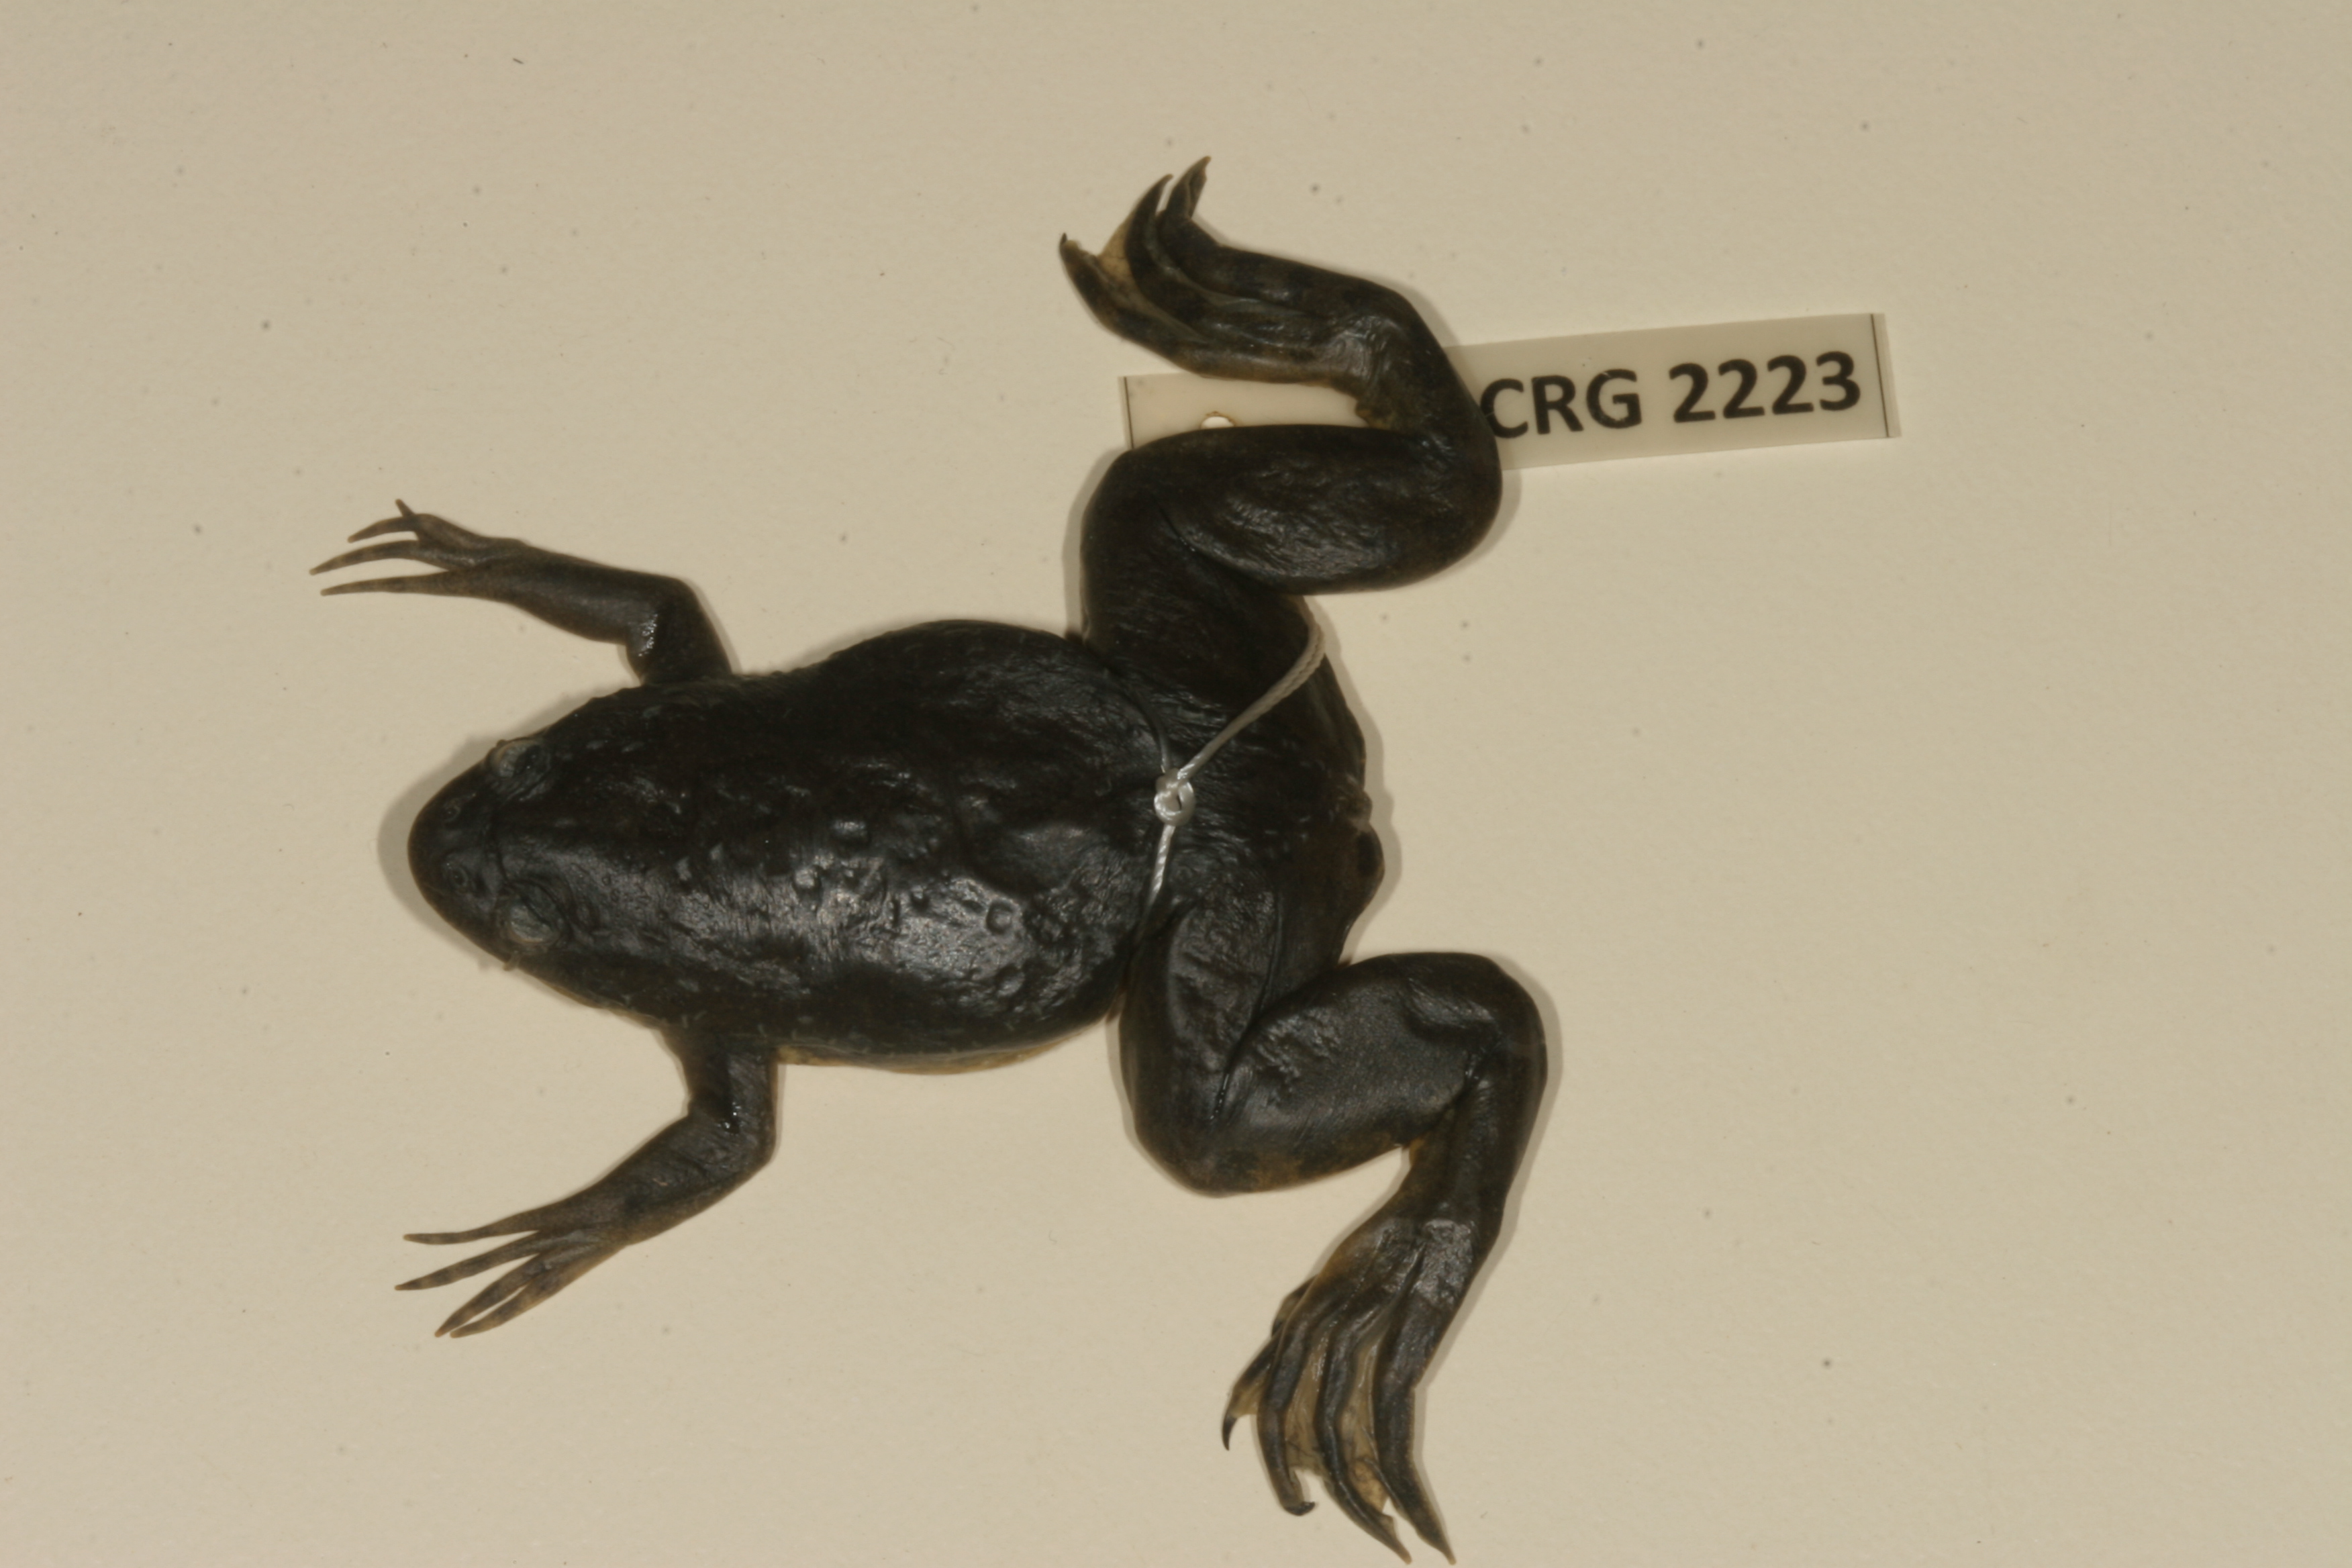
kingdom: Animalia
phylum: Chordata
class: Amphibia
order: Anura
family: Pipidae
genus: Xenopus
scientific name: Xenopus muelleri
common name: Muller's clawed frog
